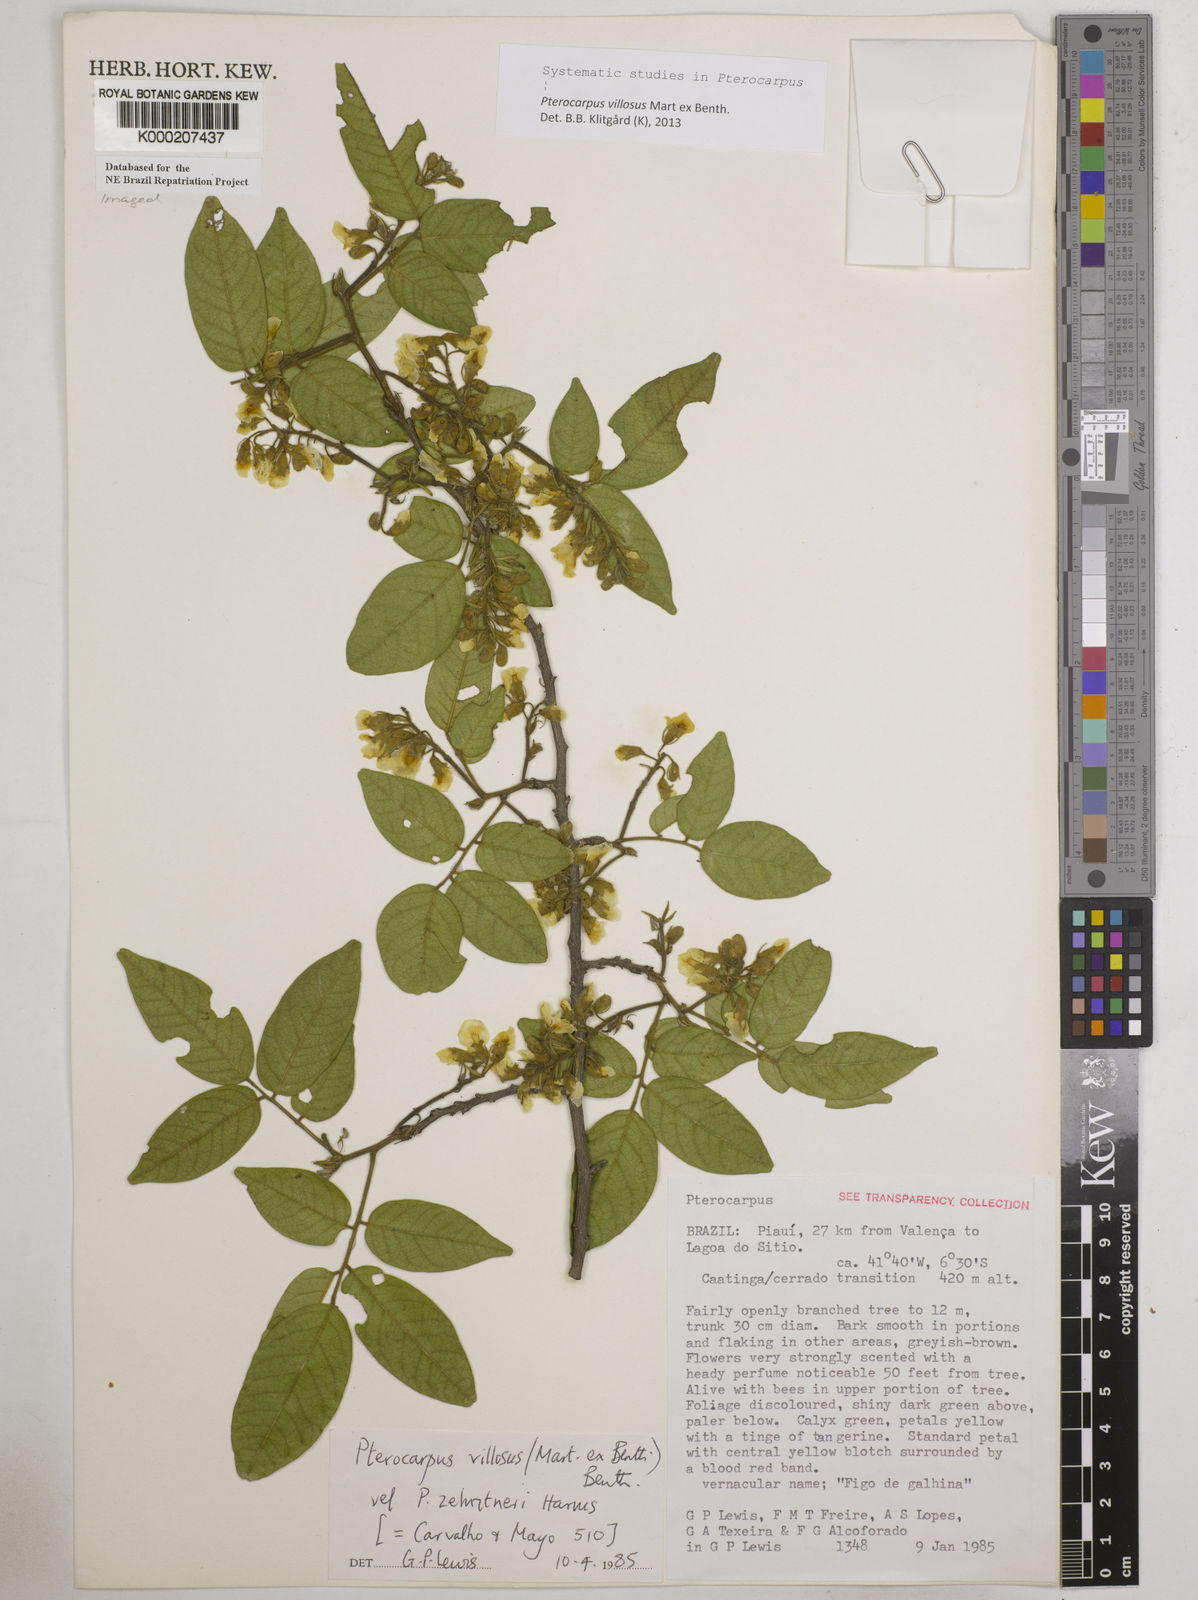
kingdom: Plantae
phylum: Tracheophyta
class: Magnoliopsida
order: Fabales
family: Fabaceae
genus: Pterocarpus
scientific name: Pterocarpus villosus
